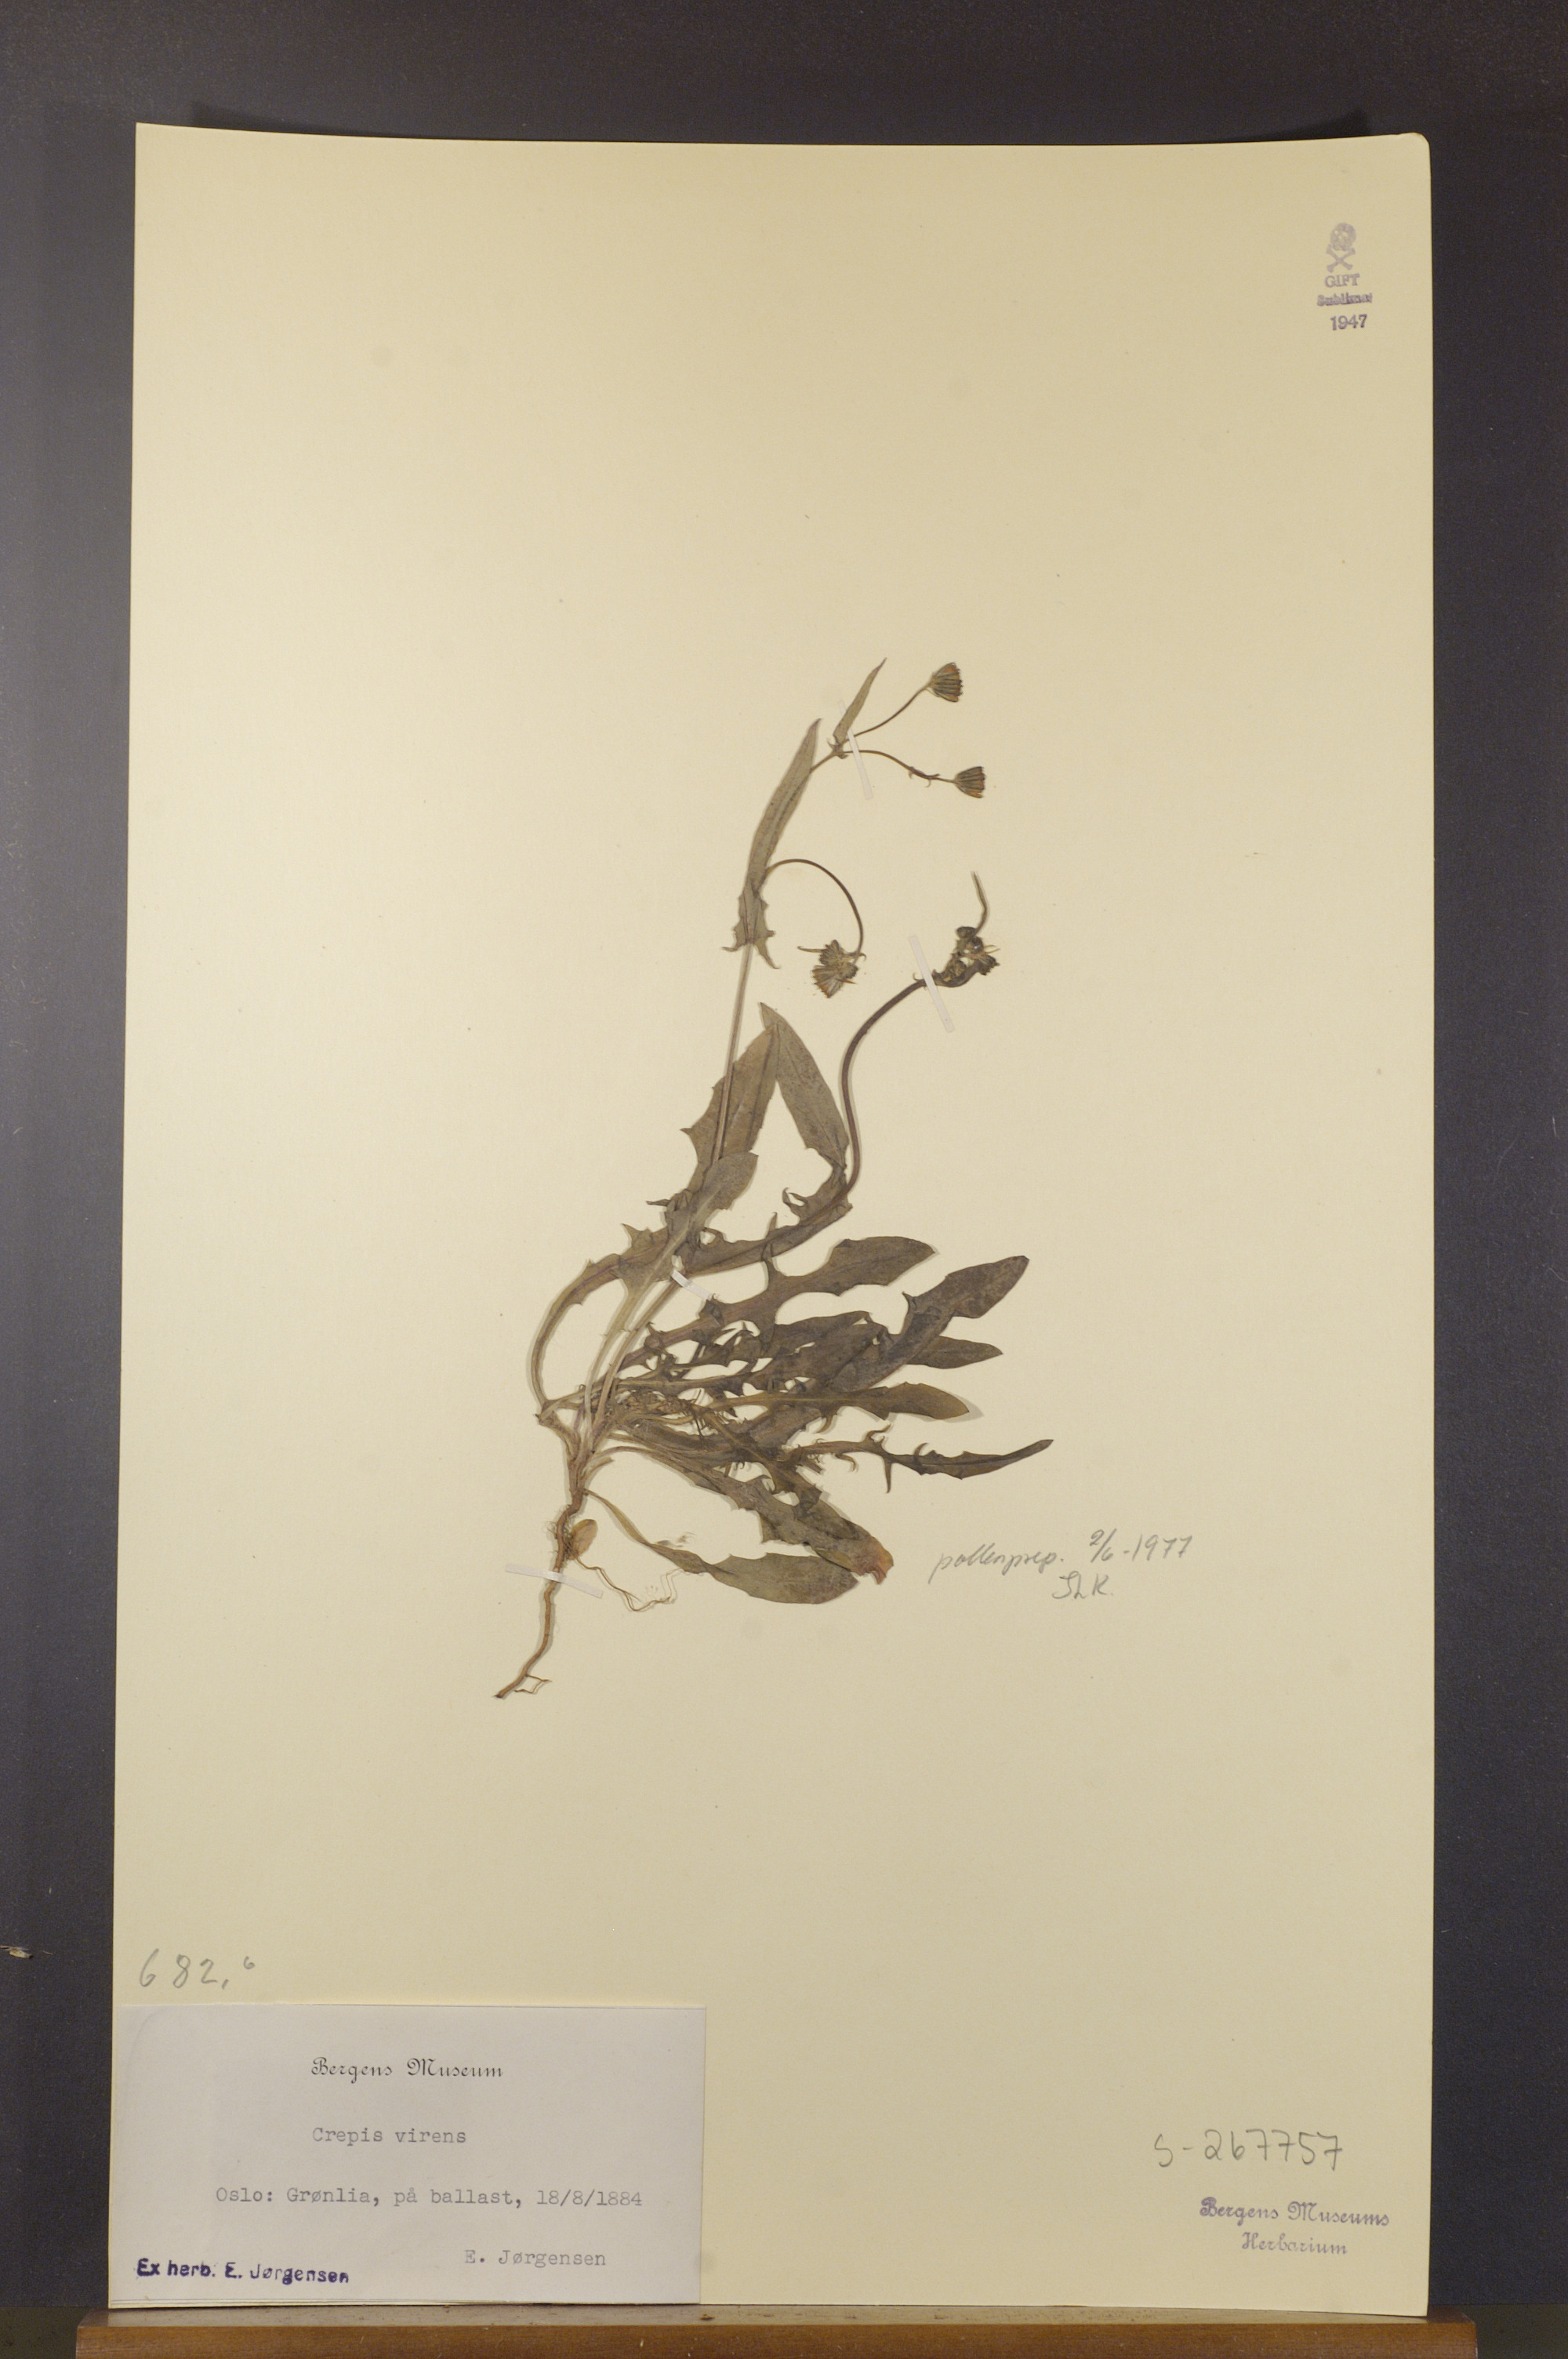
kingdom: Plantae
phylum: Tracheophyta
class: Magnoliopsida
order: Asterales
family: Asteraceae
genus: Crepis
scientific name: Crepis capillaris
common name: Smooth hawksbeard
